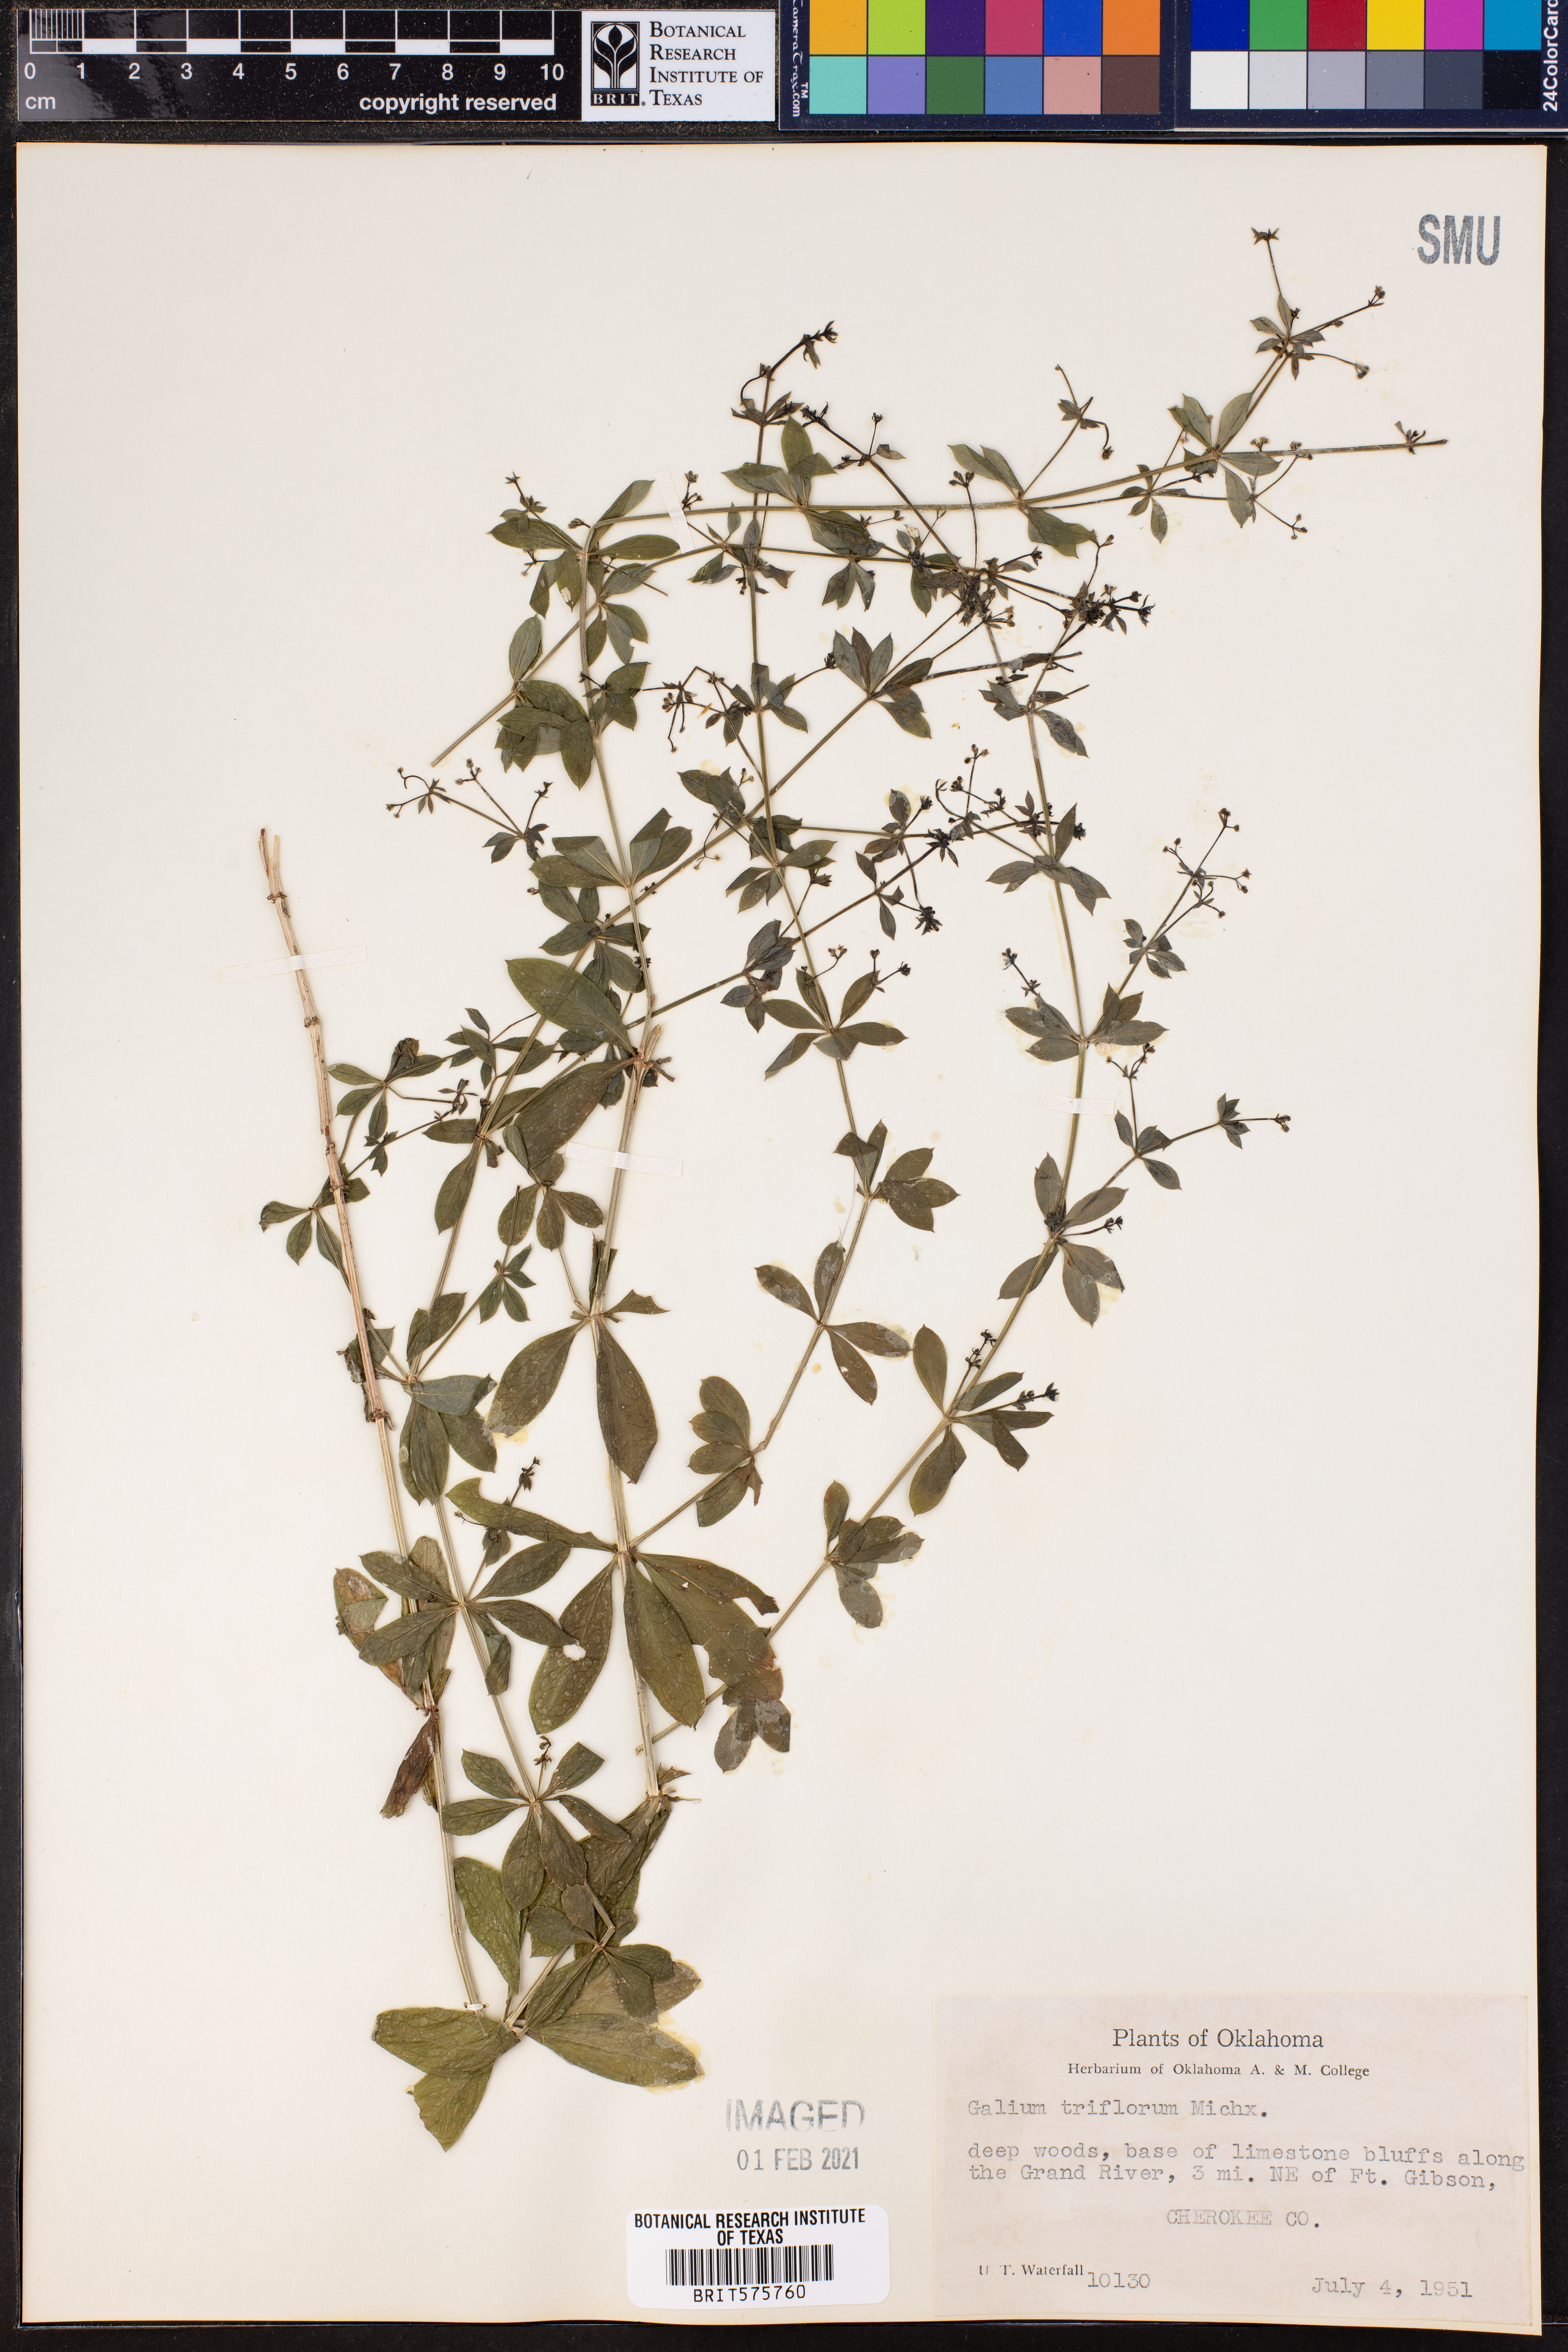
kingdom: Plantae
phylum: Tracheophyta
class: Magnoliopsida
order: Gentianales
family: Rubiaceae
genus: Galium
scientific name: Galium triflorum
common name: Fragrant bedstraw
